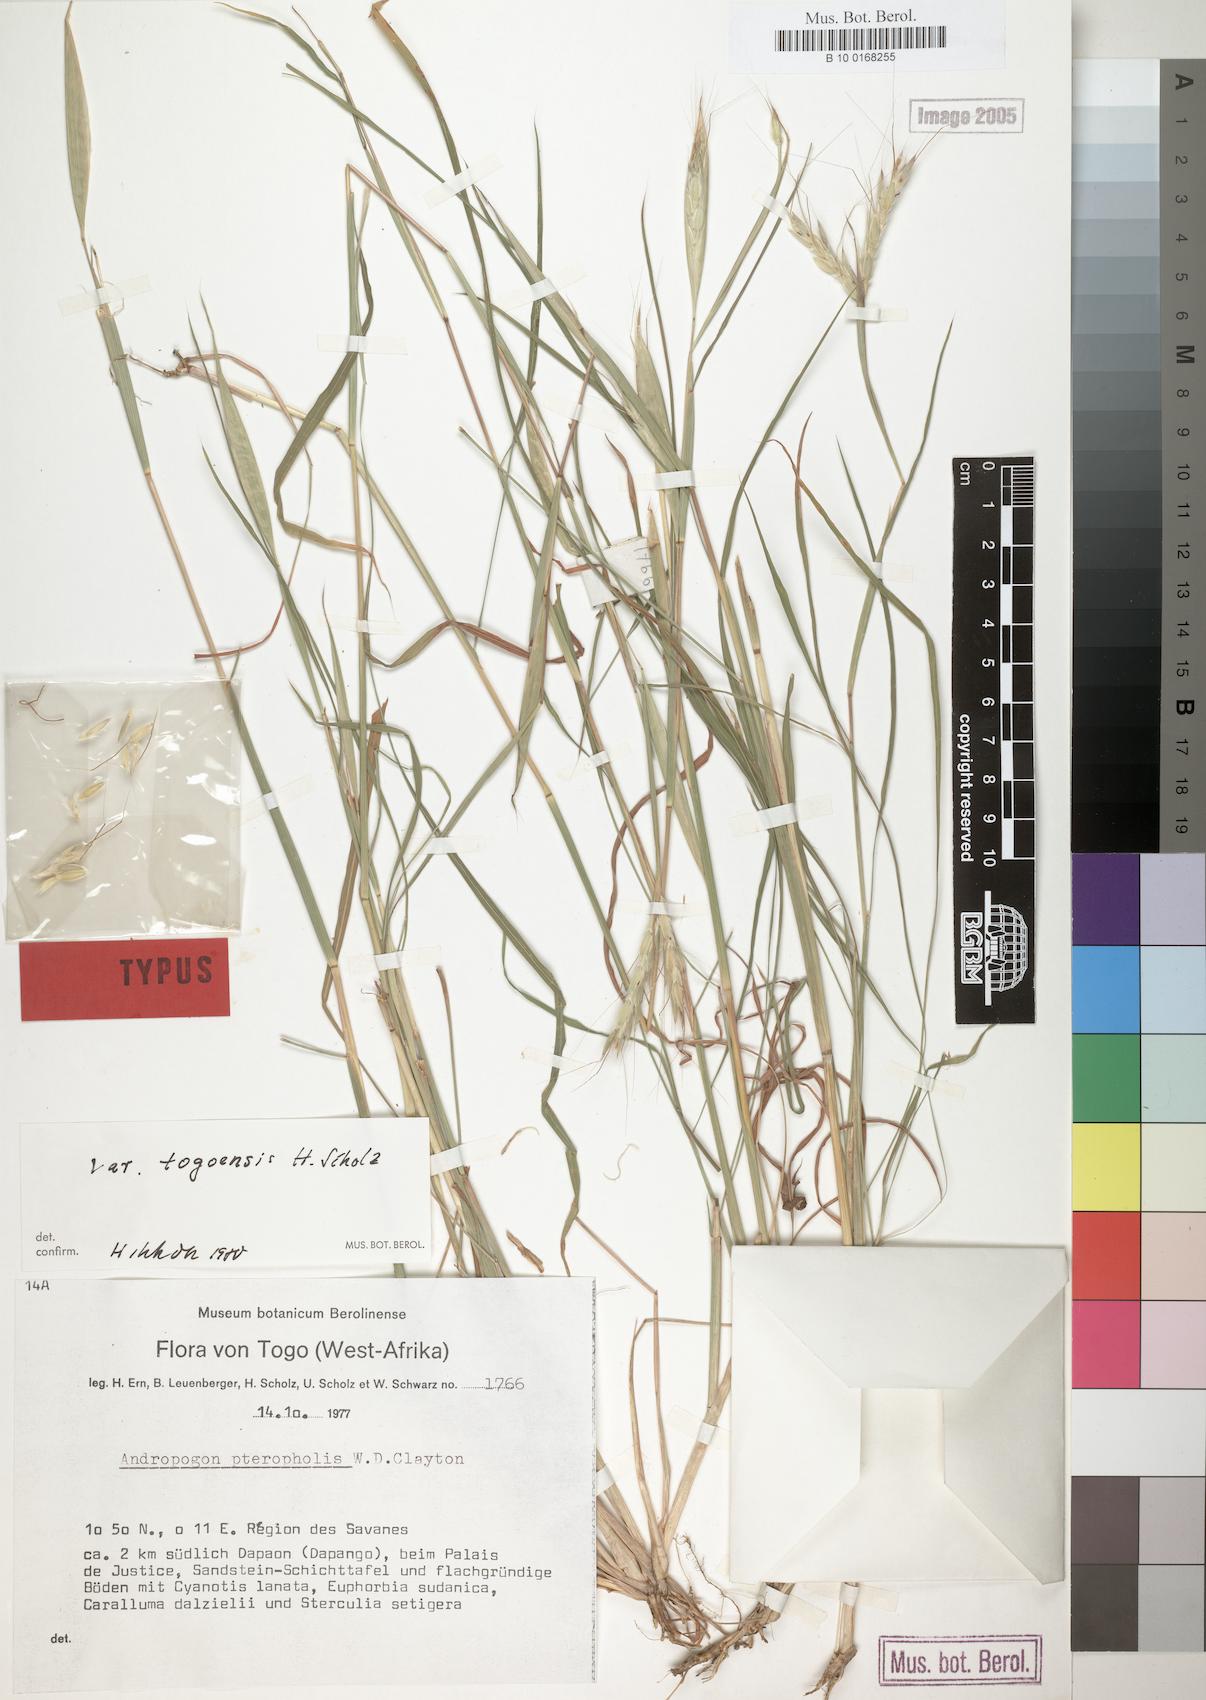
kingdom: Plantae
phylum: Tracheophyta
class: Liliopsida
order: Poales
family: Poaceae
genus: Andropogon
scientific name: Andropogon pteropholis
